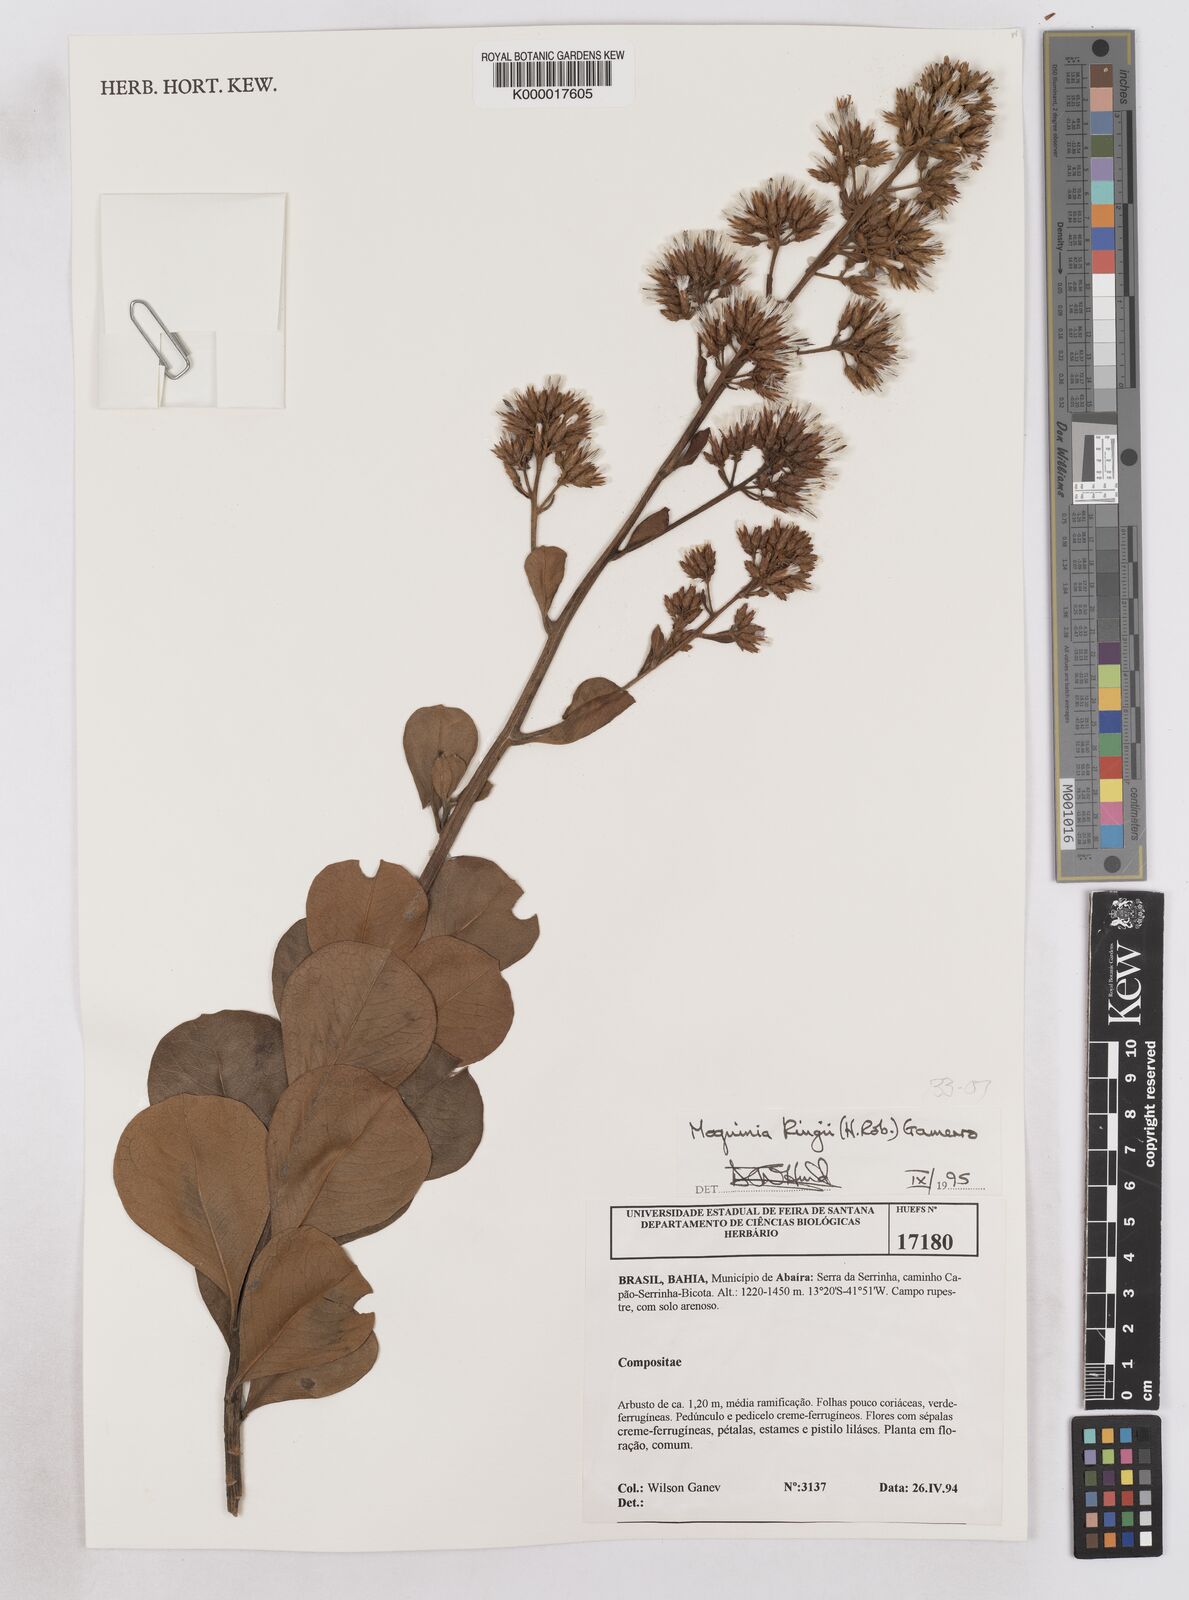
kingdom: Plantae
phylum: Tracheophyta
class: Magnoliopsida
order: Asterales
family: Asteraceae
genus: Pseudostifftia
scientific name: Pseudostifftia kingii
